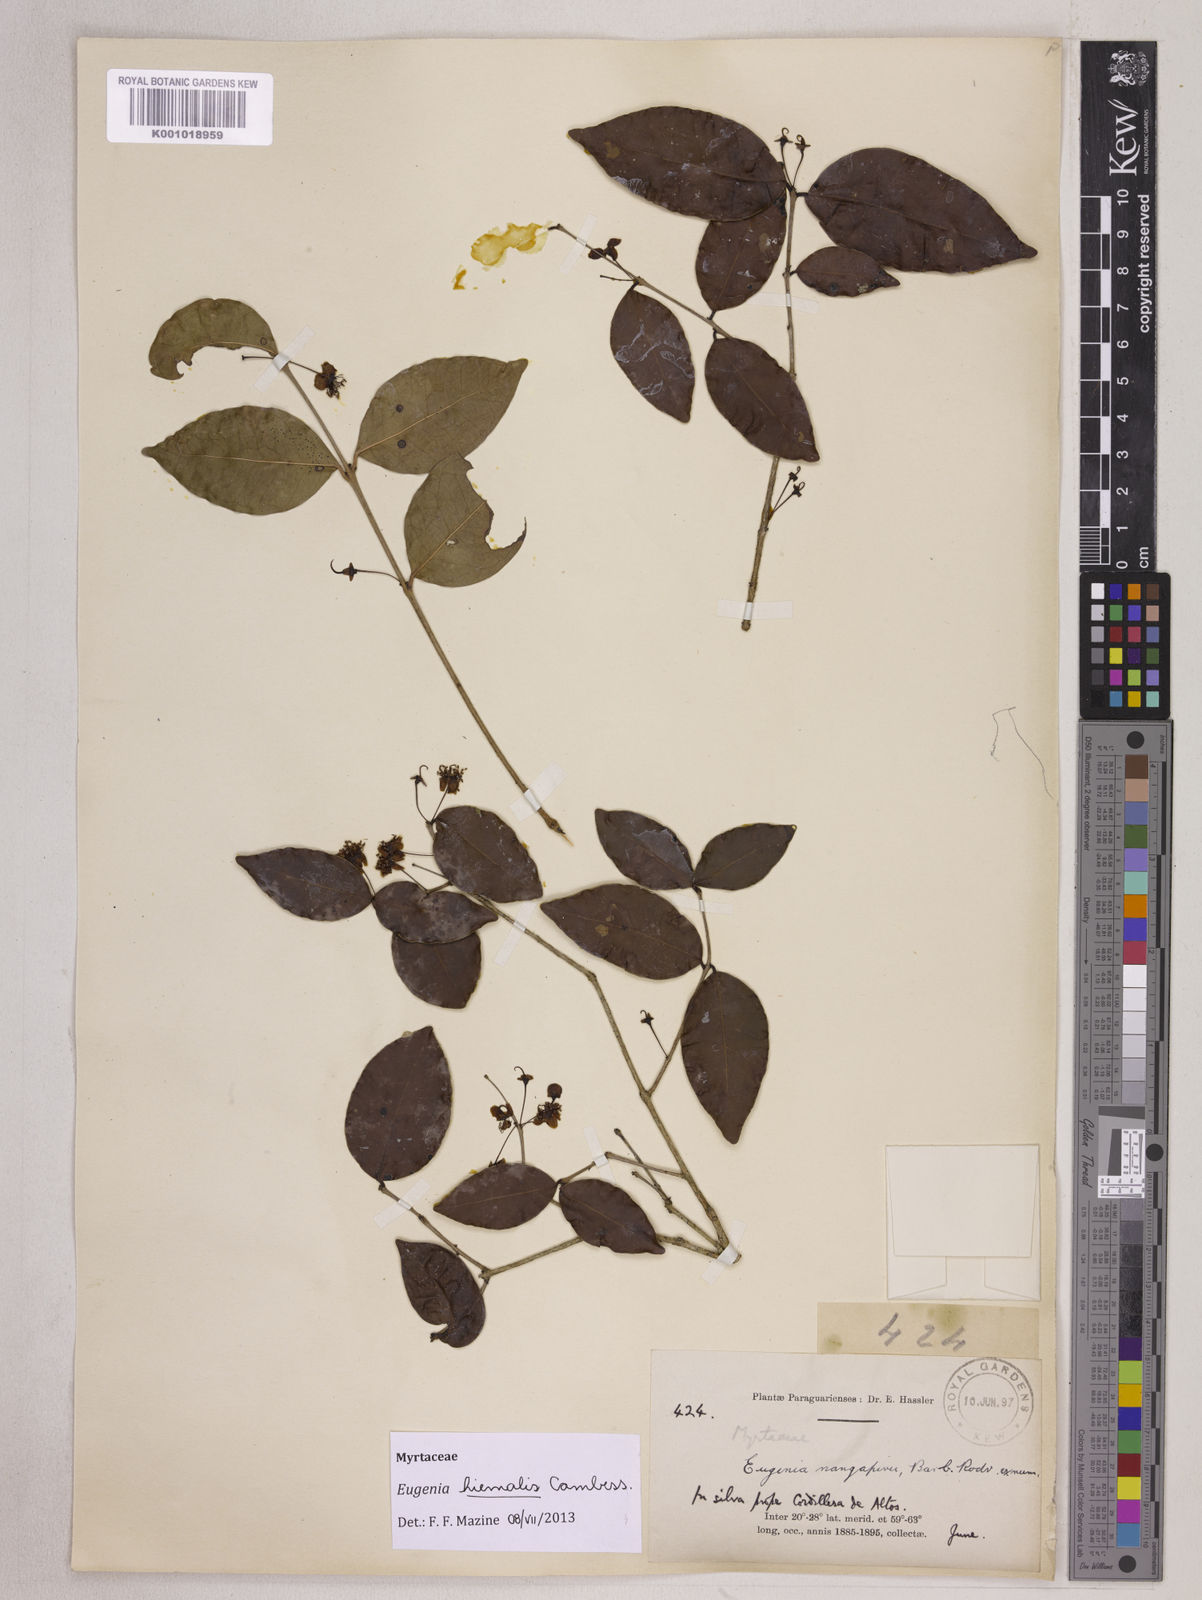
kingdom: Plantae
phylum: Tracheophyta
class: Magnoliopsida
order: Myrtales
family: Myrtaceae
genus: Eugenia
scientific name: Eugenia hiemalis
